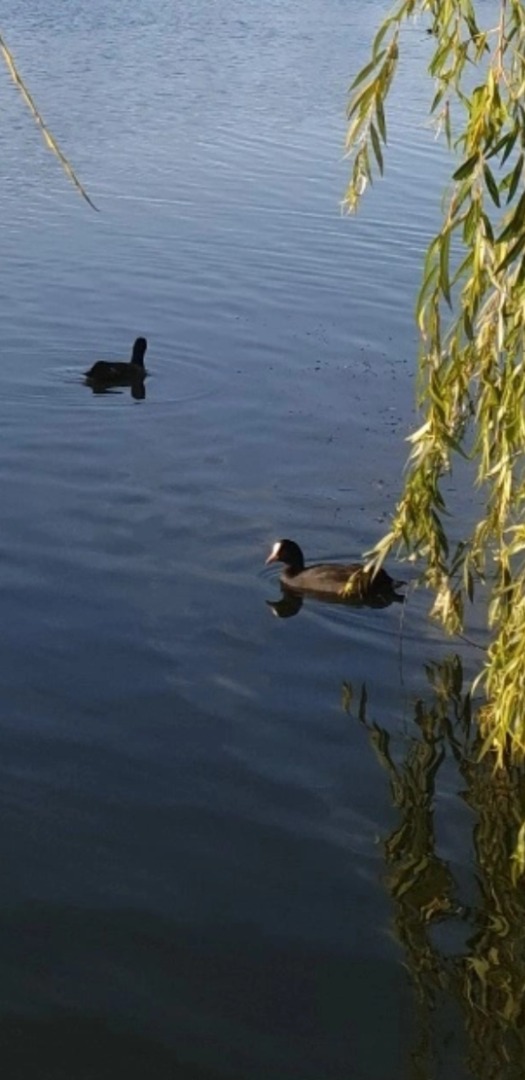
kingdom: Animalia
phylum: Chordata
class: Aves
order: Gruiformes
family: Rallidae
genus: Fulica
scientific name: Fulica atra
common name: Blishøne
